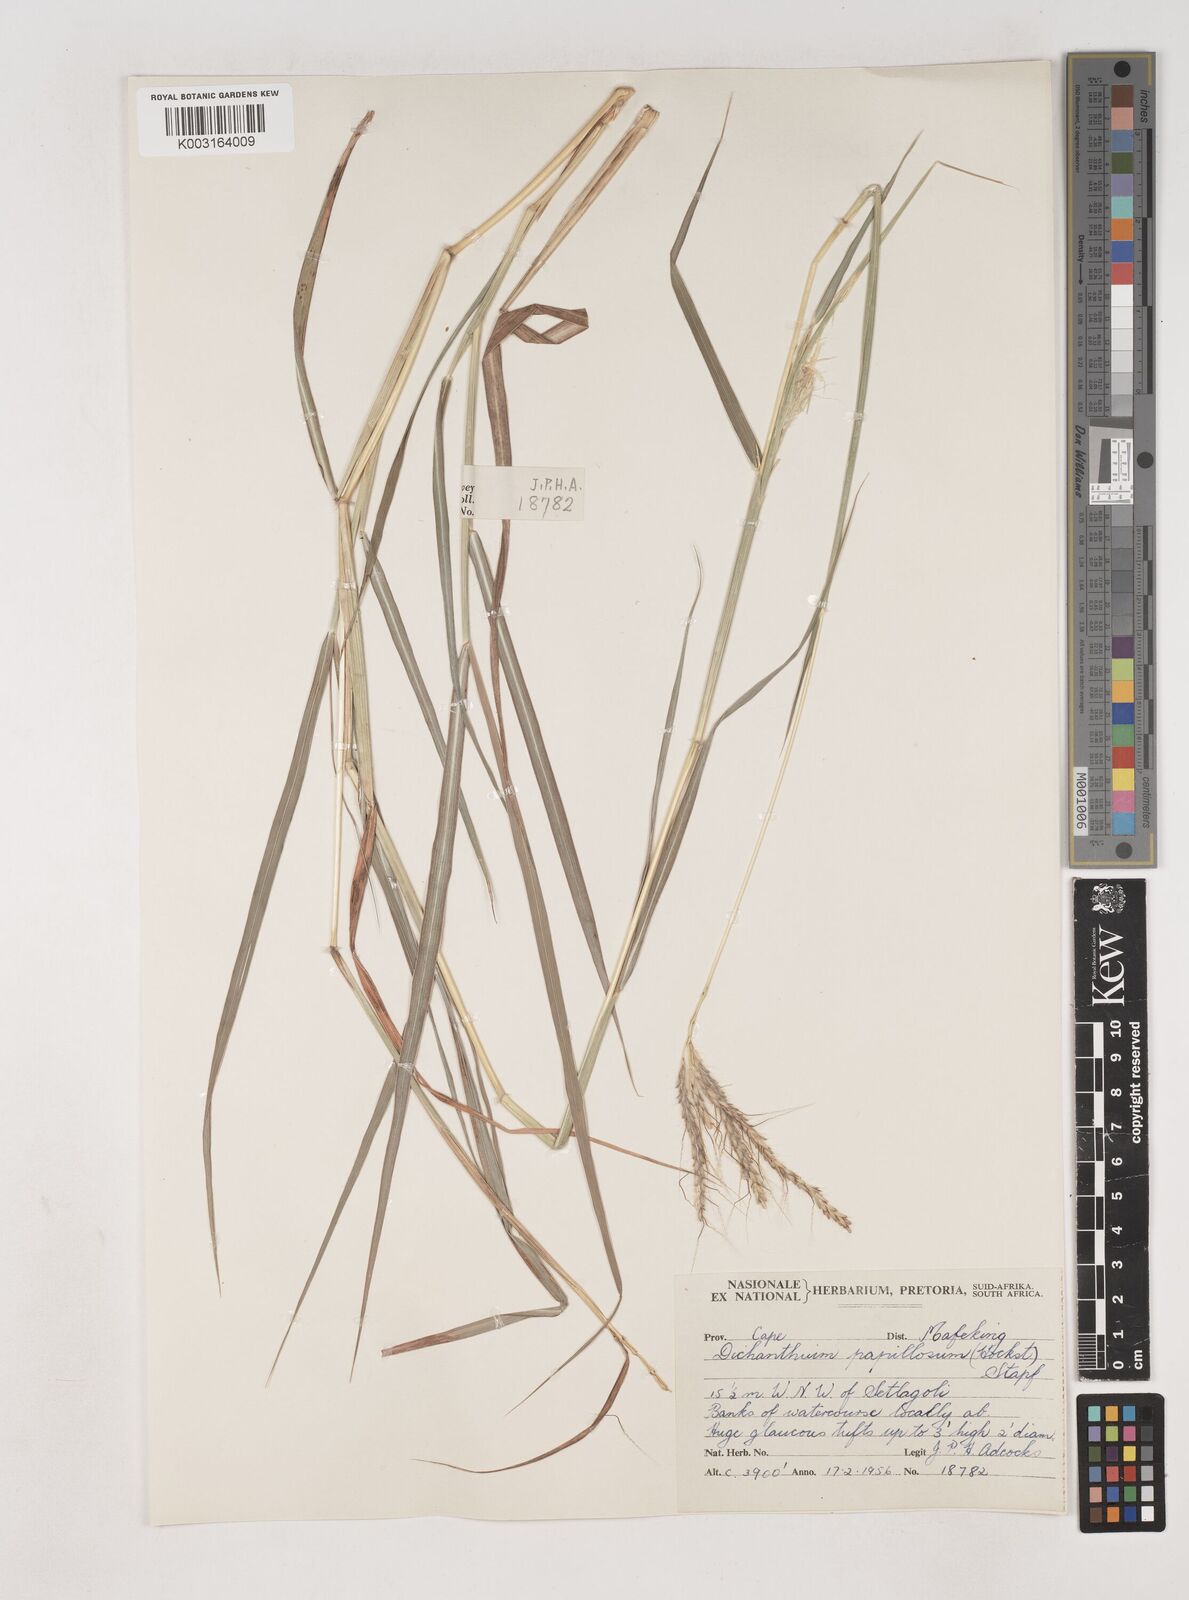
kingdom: Plantae
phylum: Tracheophyta
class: Liliopsida
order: Poales
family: Poaceae
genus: Dichanthium
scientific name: Dichanthium annulatum
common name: Kleberg's bluestem
